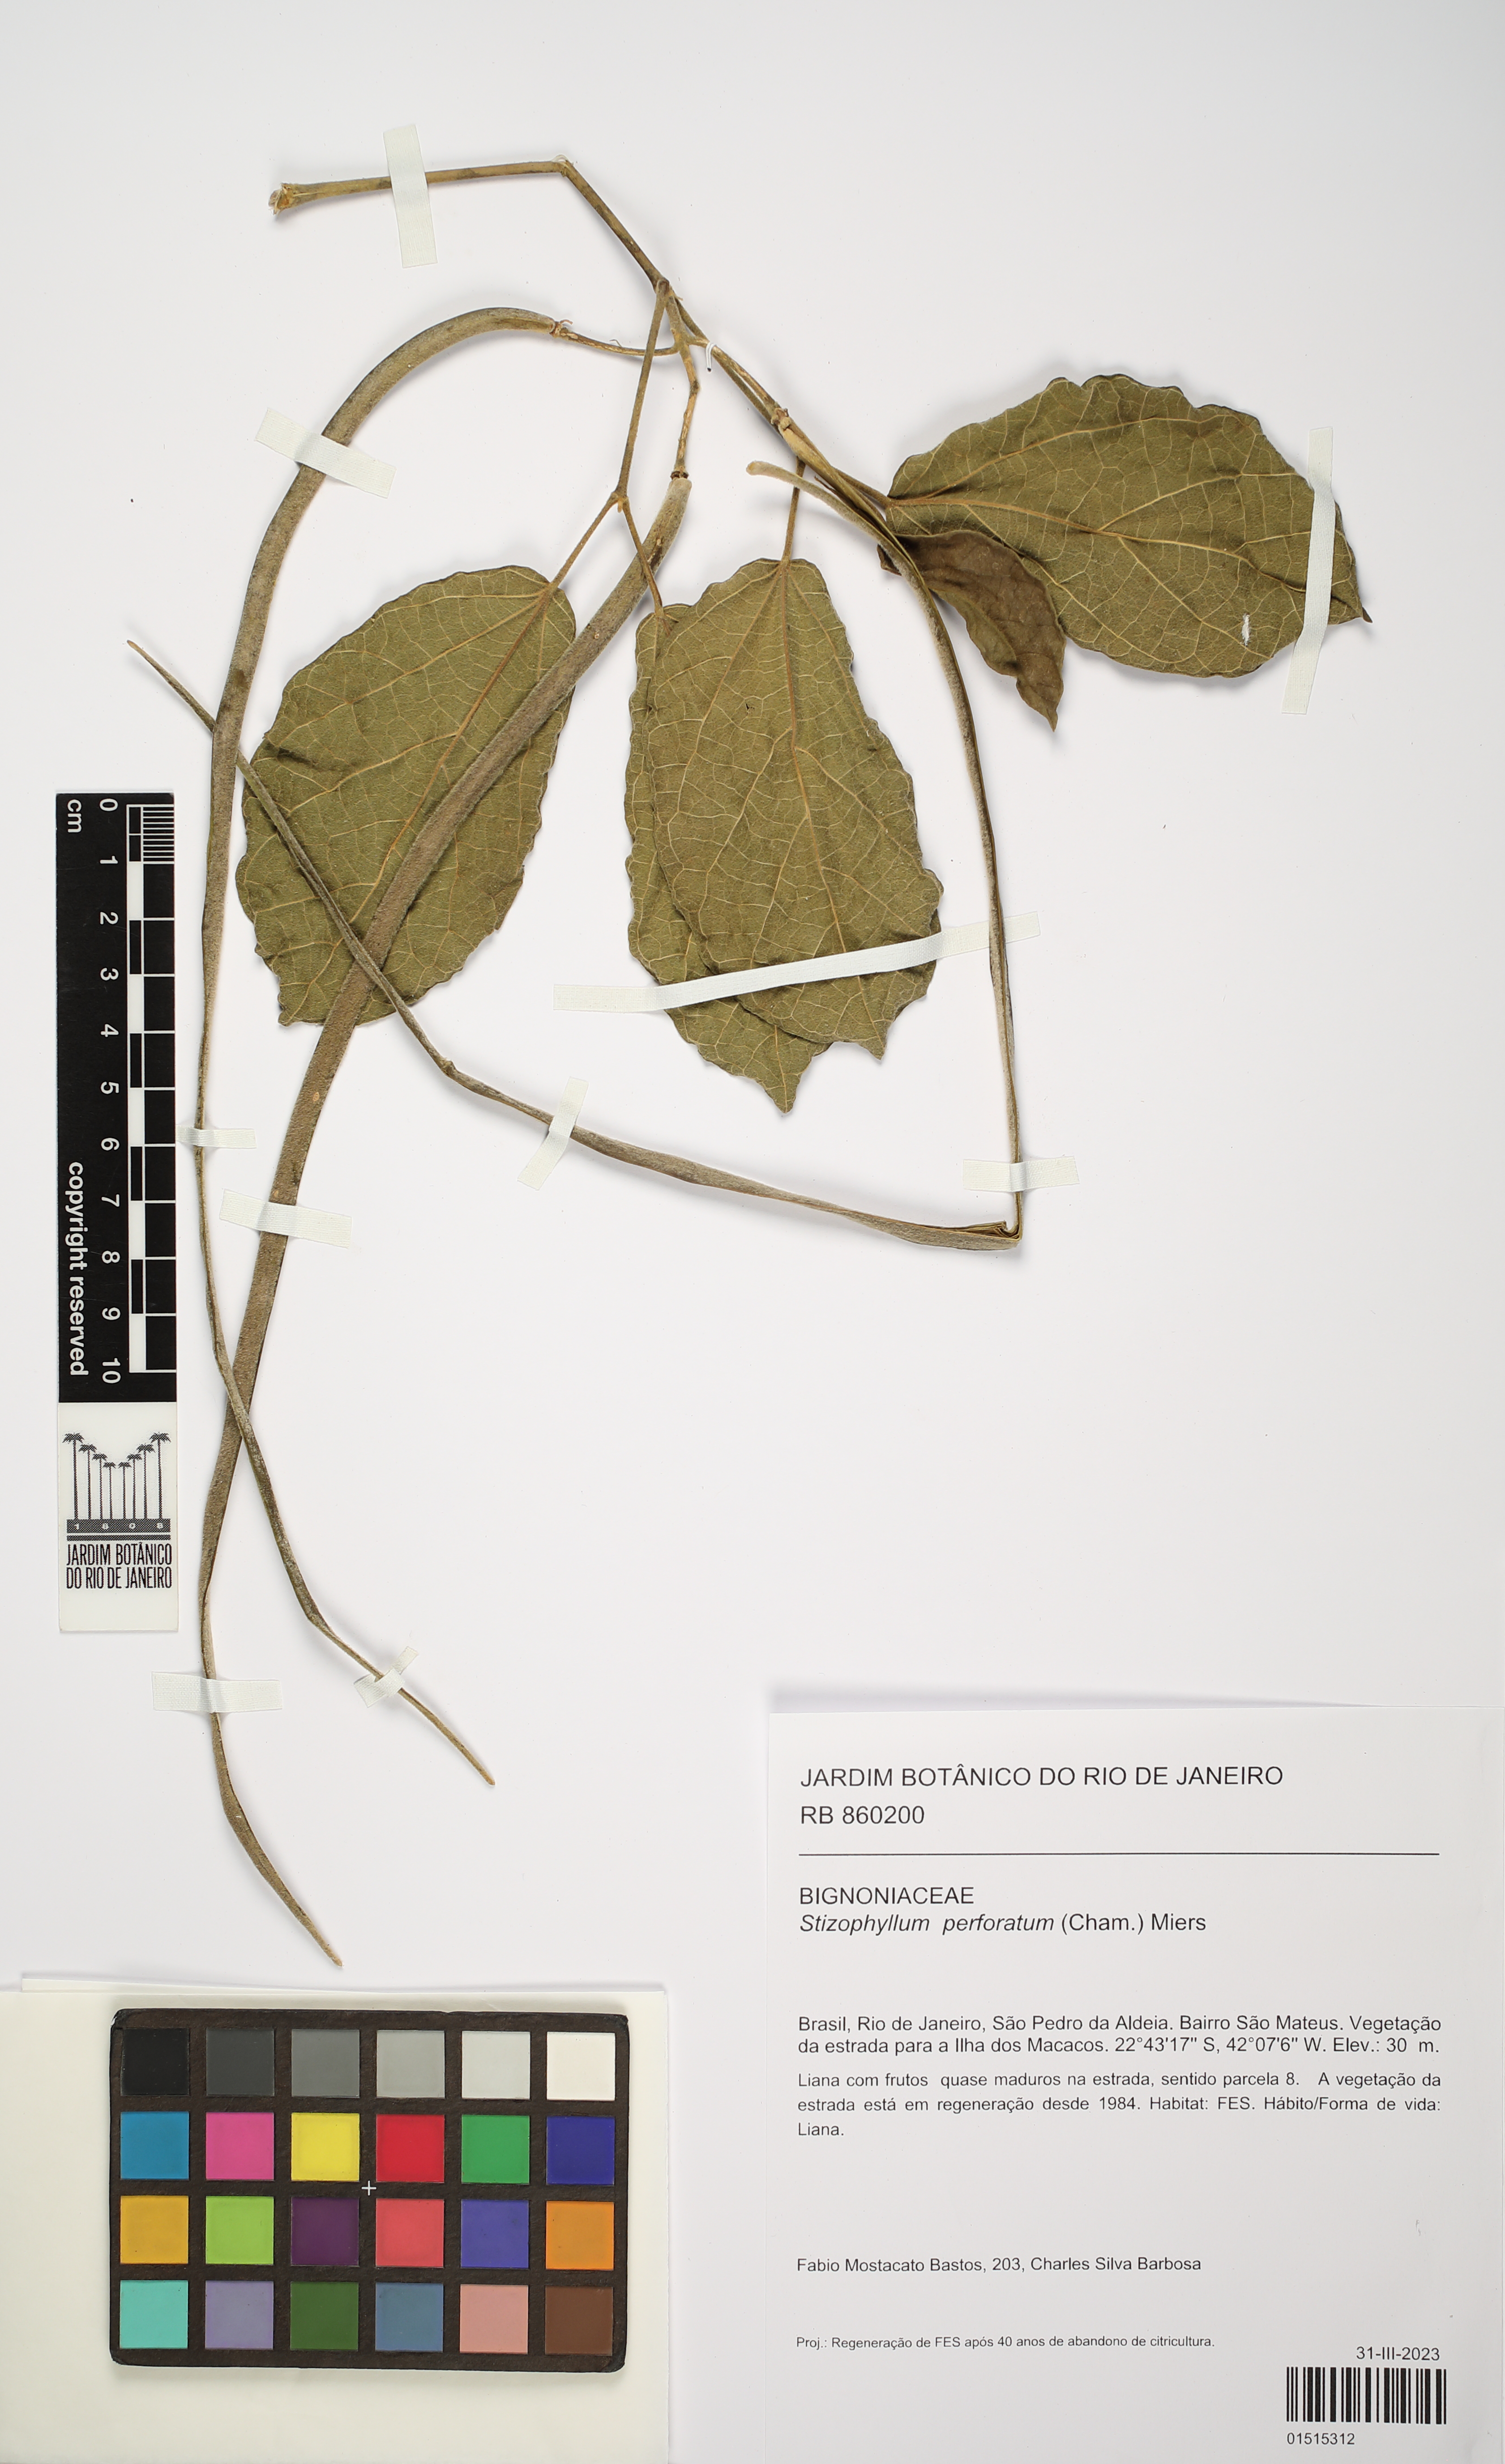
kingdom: Plantae
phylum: Tracheophyta
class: Magnoliopsida
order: Lamiales
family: Bignoniaceae
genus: Stizophyllum
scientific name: Stizophyllum perforatum
